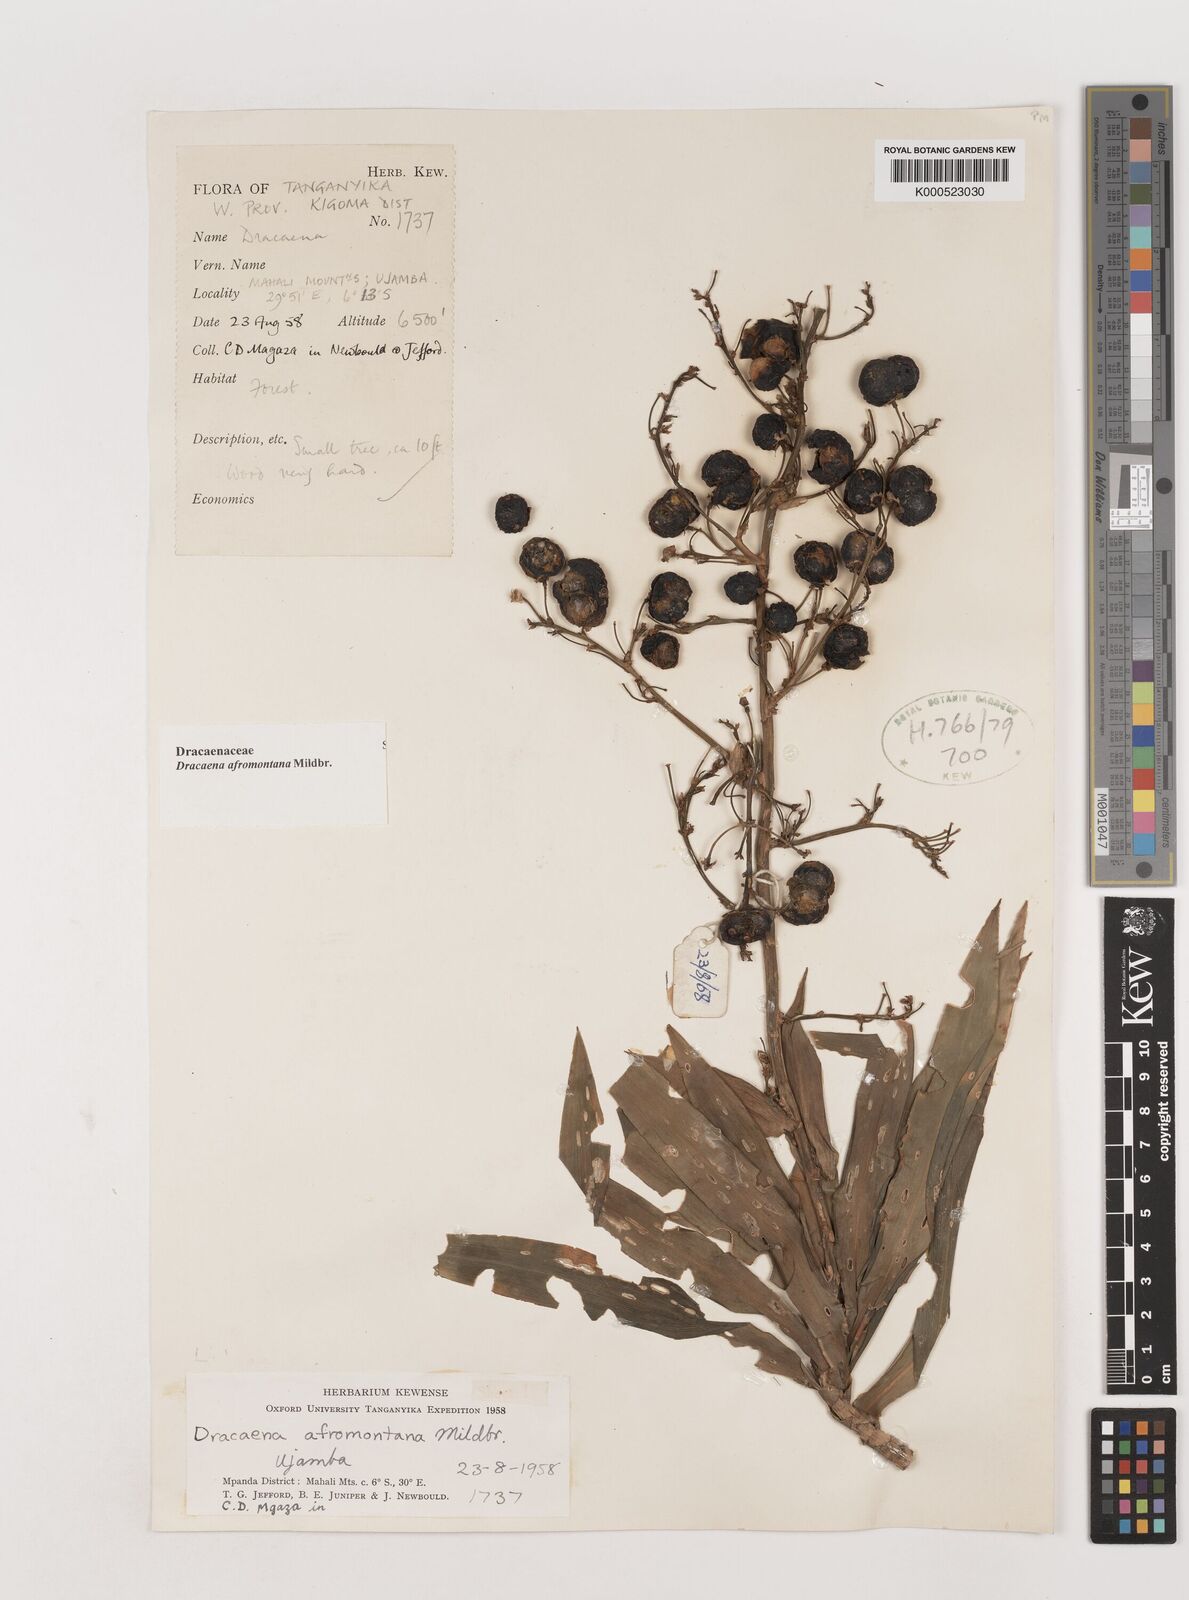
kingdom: Plantae
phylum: Tracheophyta
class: Liliopsida
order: Asparagales
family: Asparagaceae
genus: Dracaena
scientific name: Dracaena afromontana
